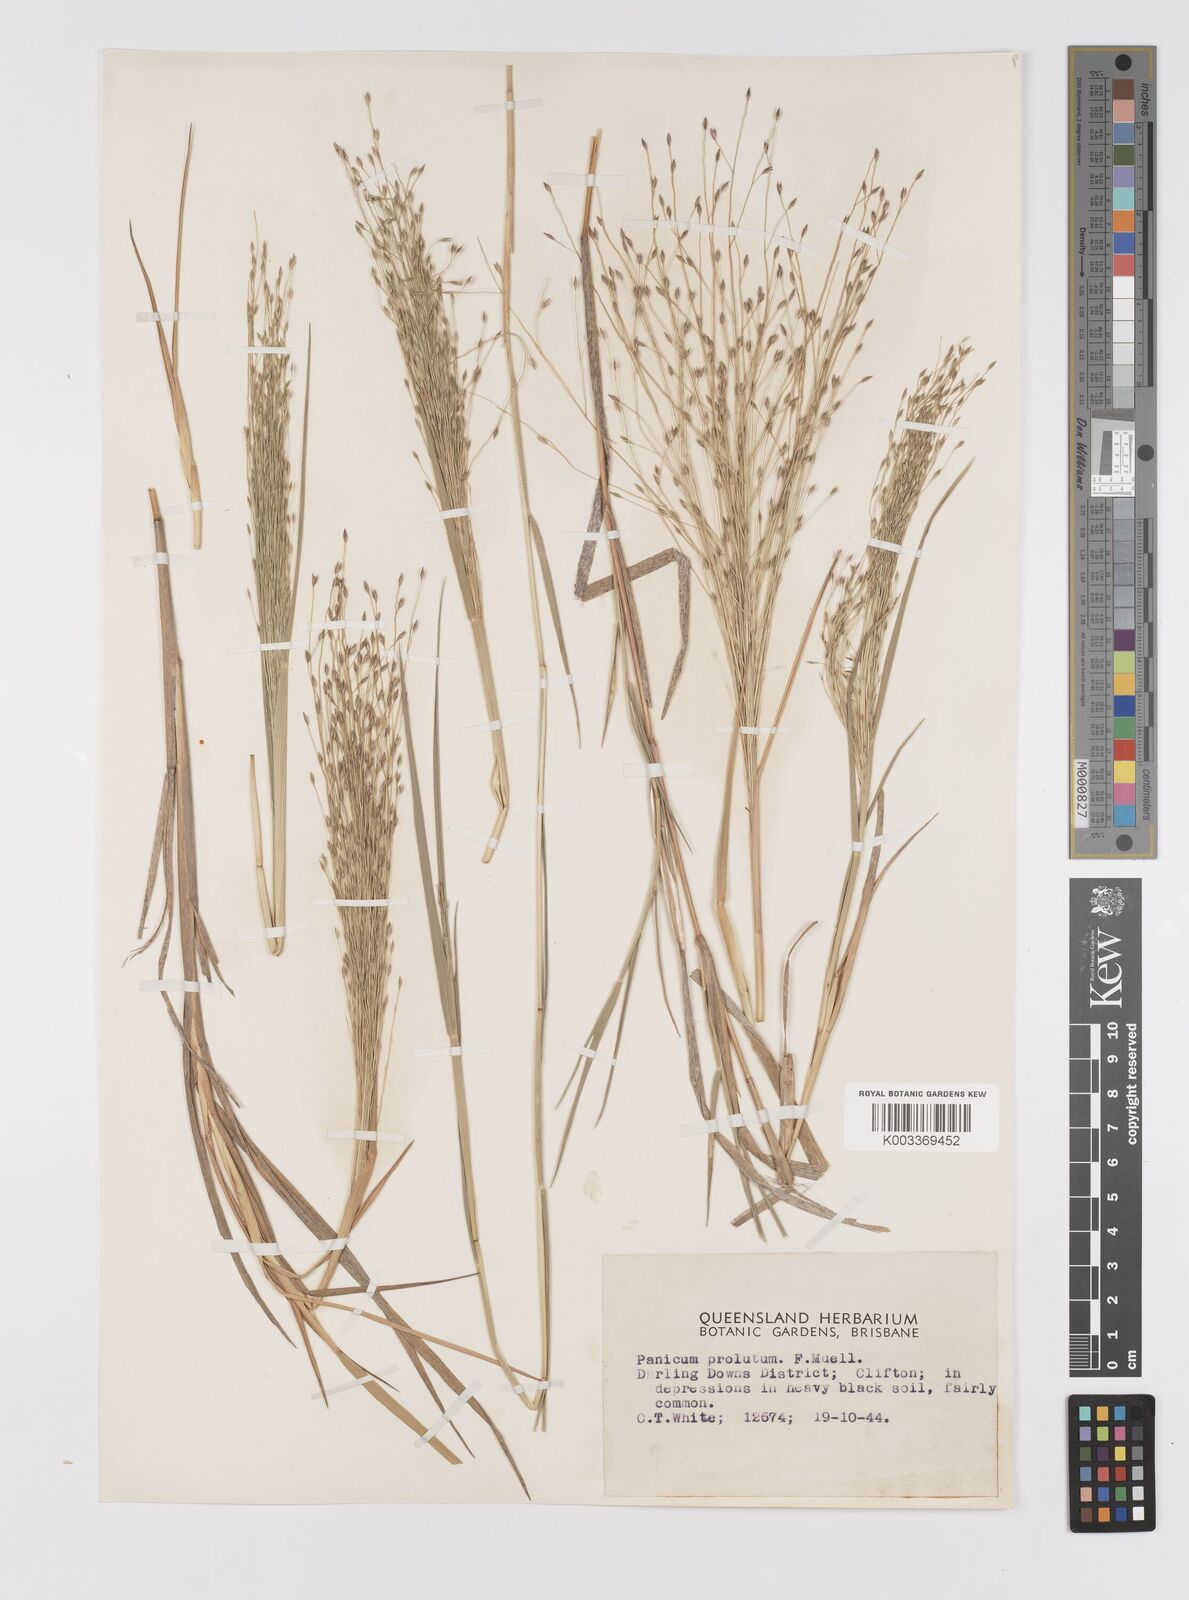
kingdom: Plantae
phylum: Tracheophyta
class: Liliopsida
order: Poales
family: Poaceae
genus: Walwhalleya
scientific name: Walwhalleya proluta
